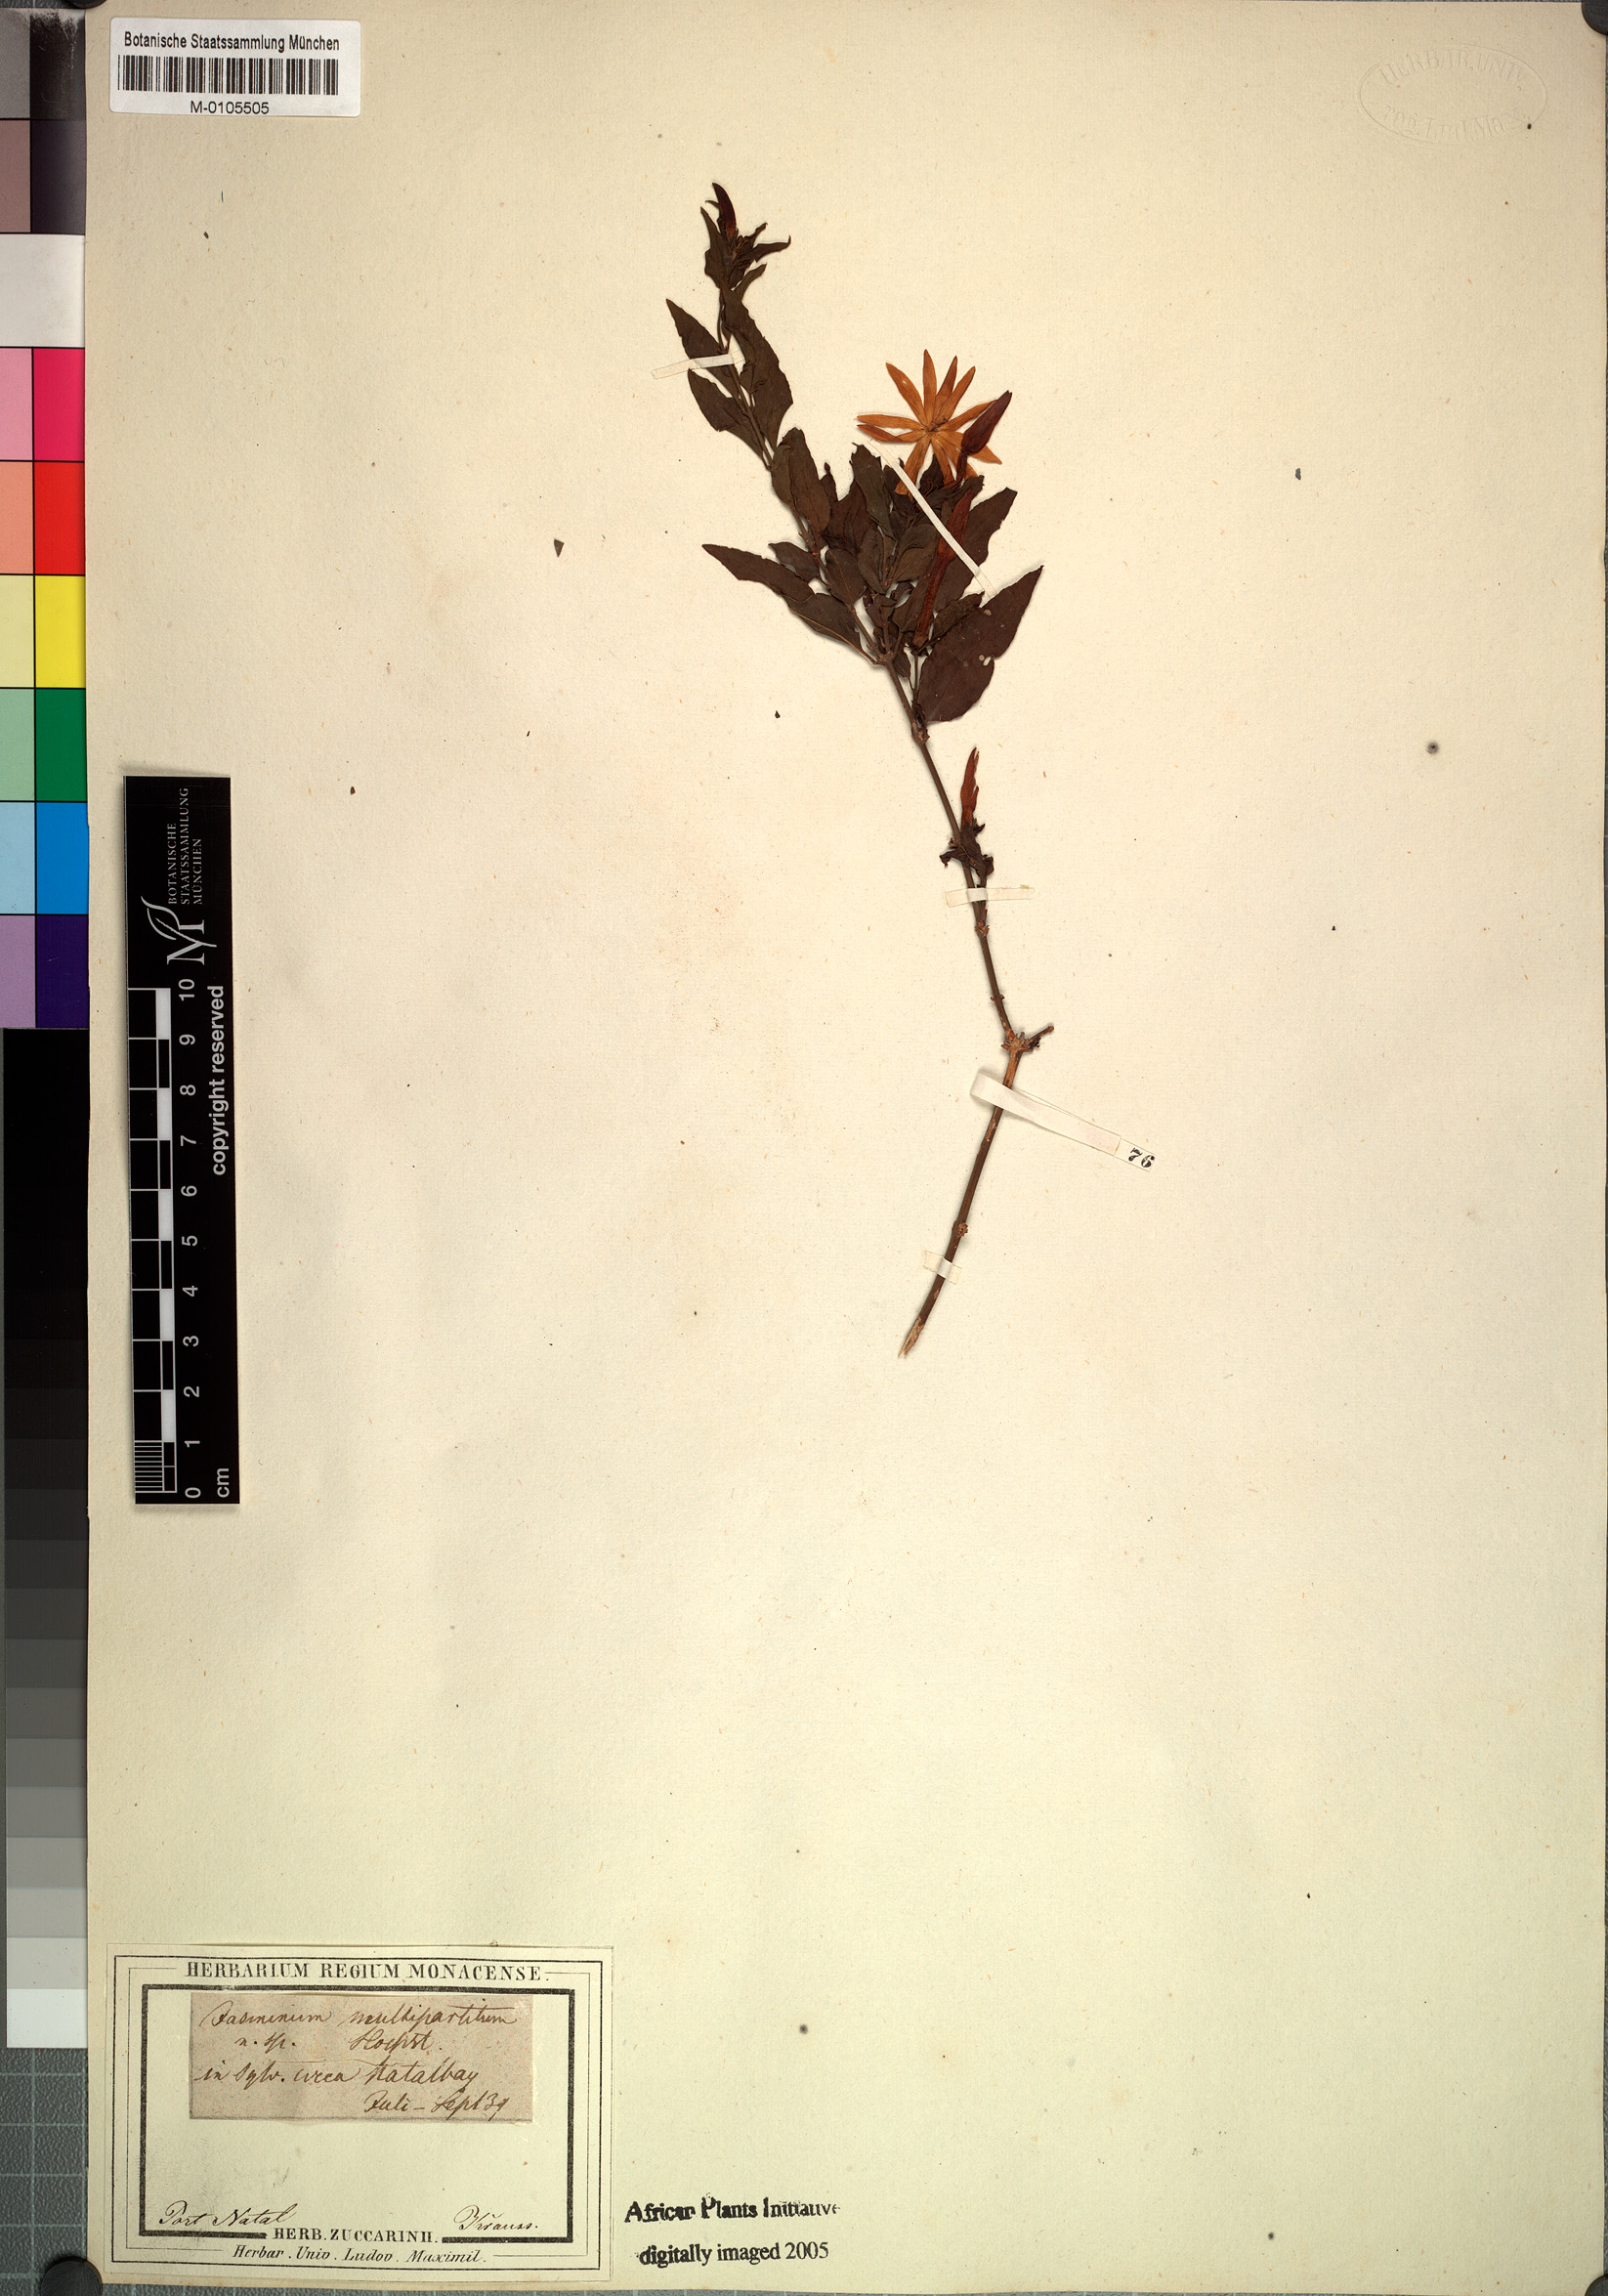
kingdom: Plantae
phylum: Tracheophyta
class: Magnoliopsida
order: Lamiales
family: Oleaceae
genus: Jasminum
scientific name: Jasminum multipartitum
